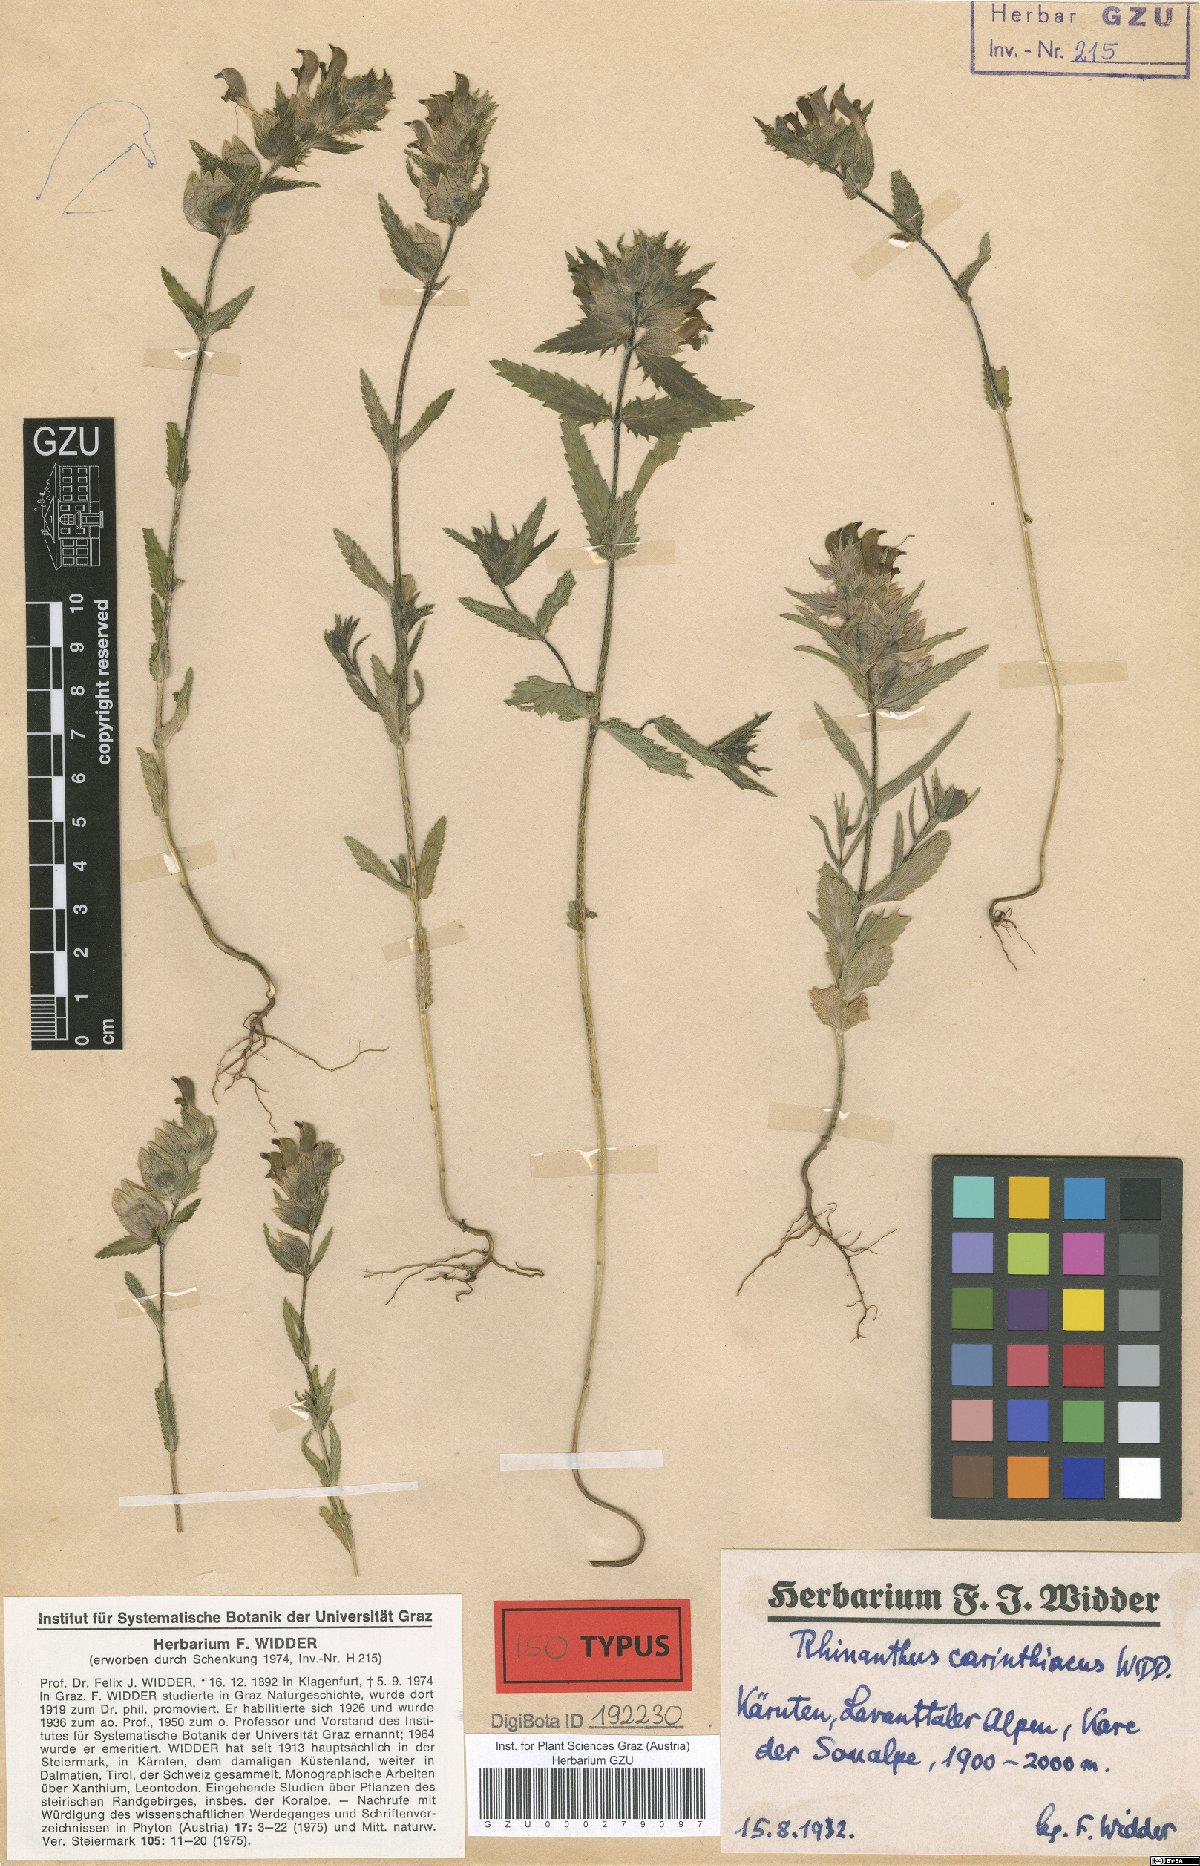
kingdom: Plantae
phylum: Tracheophyta
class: Magnoliopsida
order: Lamiales
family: Orobanchaceae
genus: Rhinanthus
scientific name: Rhinanthus carinthiacus
